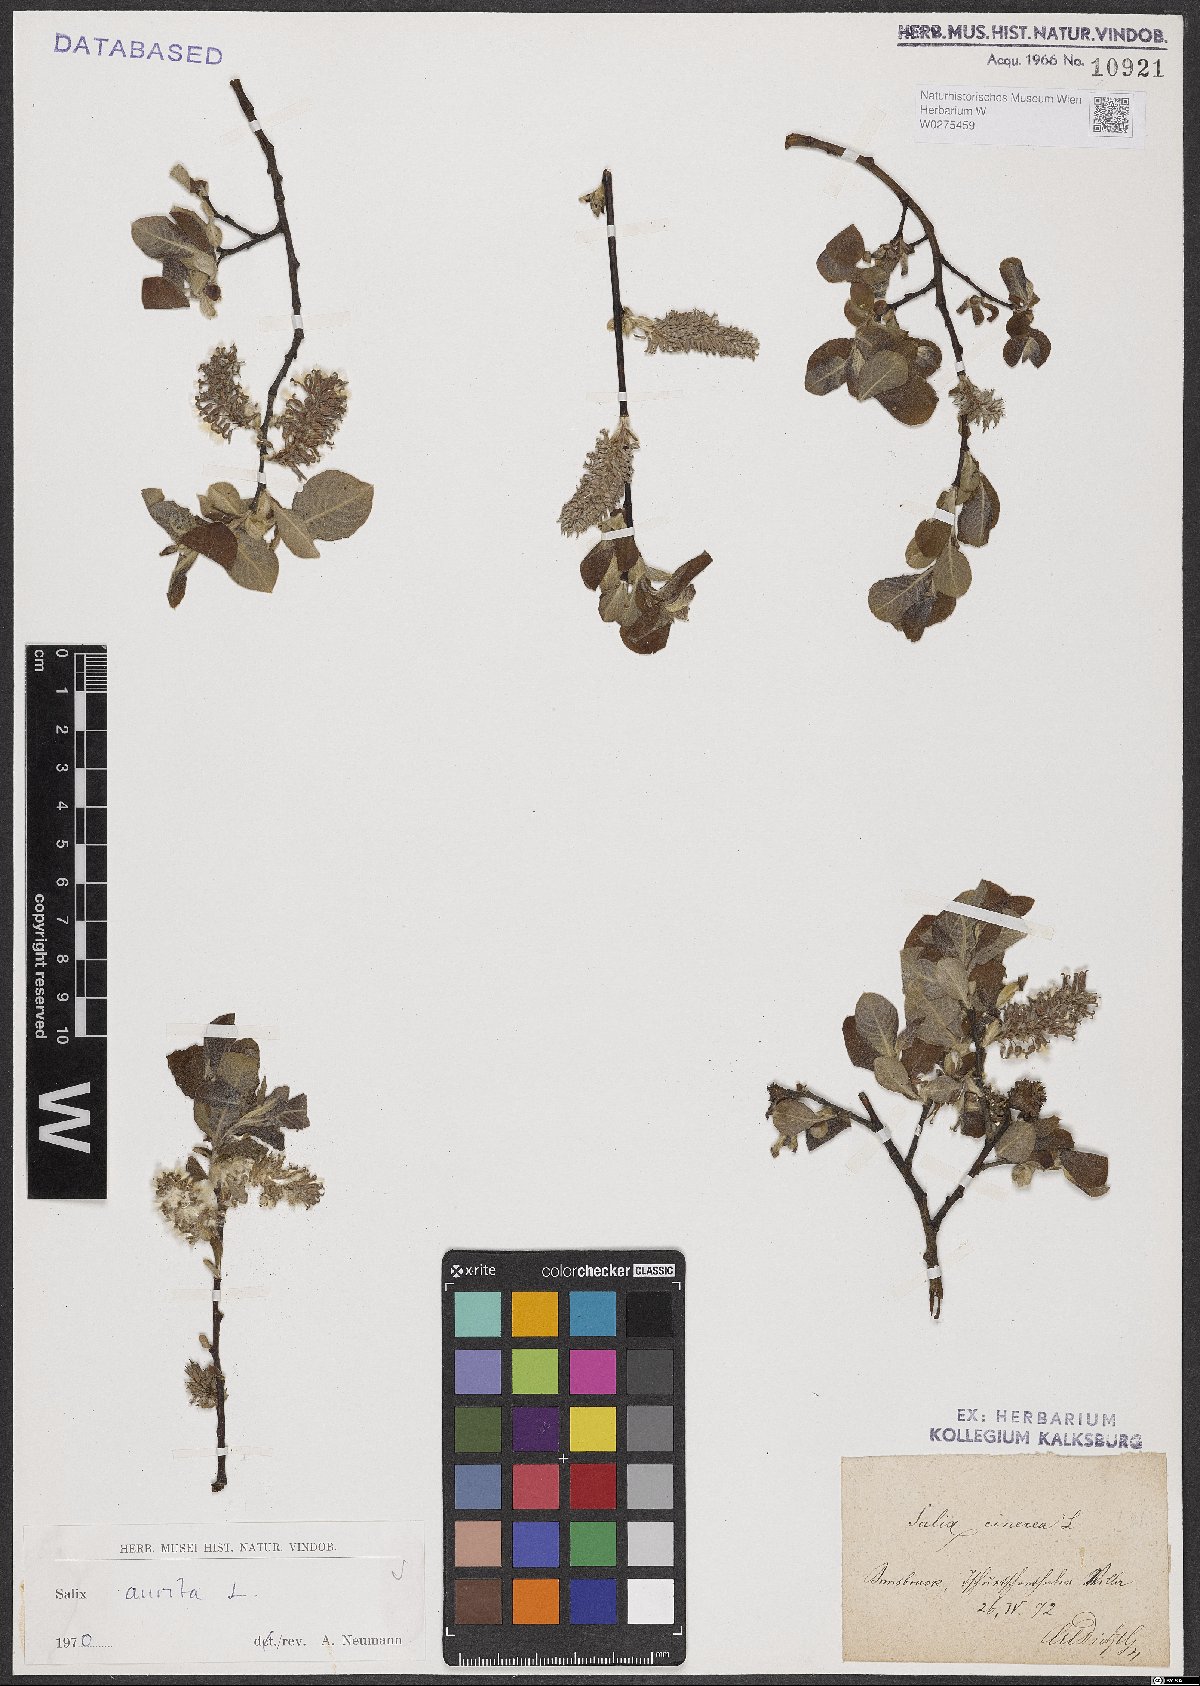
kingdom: Plantae
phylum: Tracheophyta
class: Magnoliopsida
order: Malpighiales
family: Salicaceae
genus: Salix
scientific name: Salix aurita
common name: Eared willow
